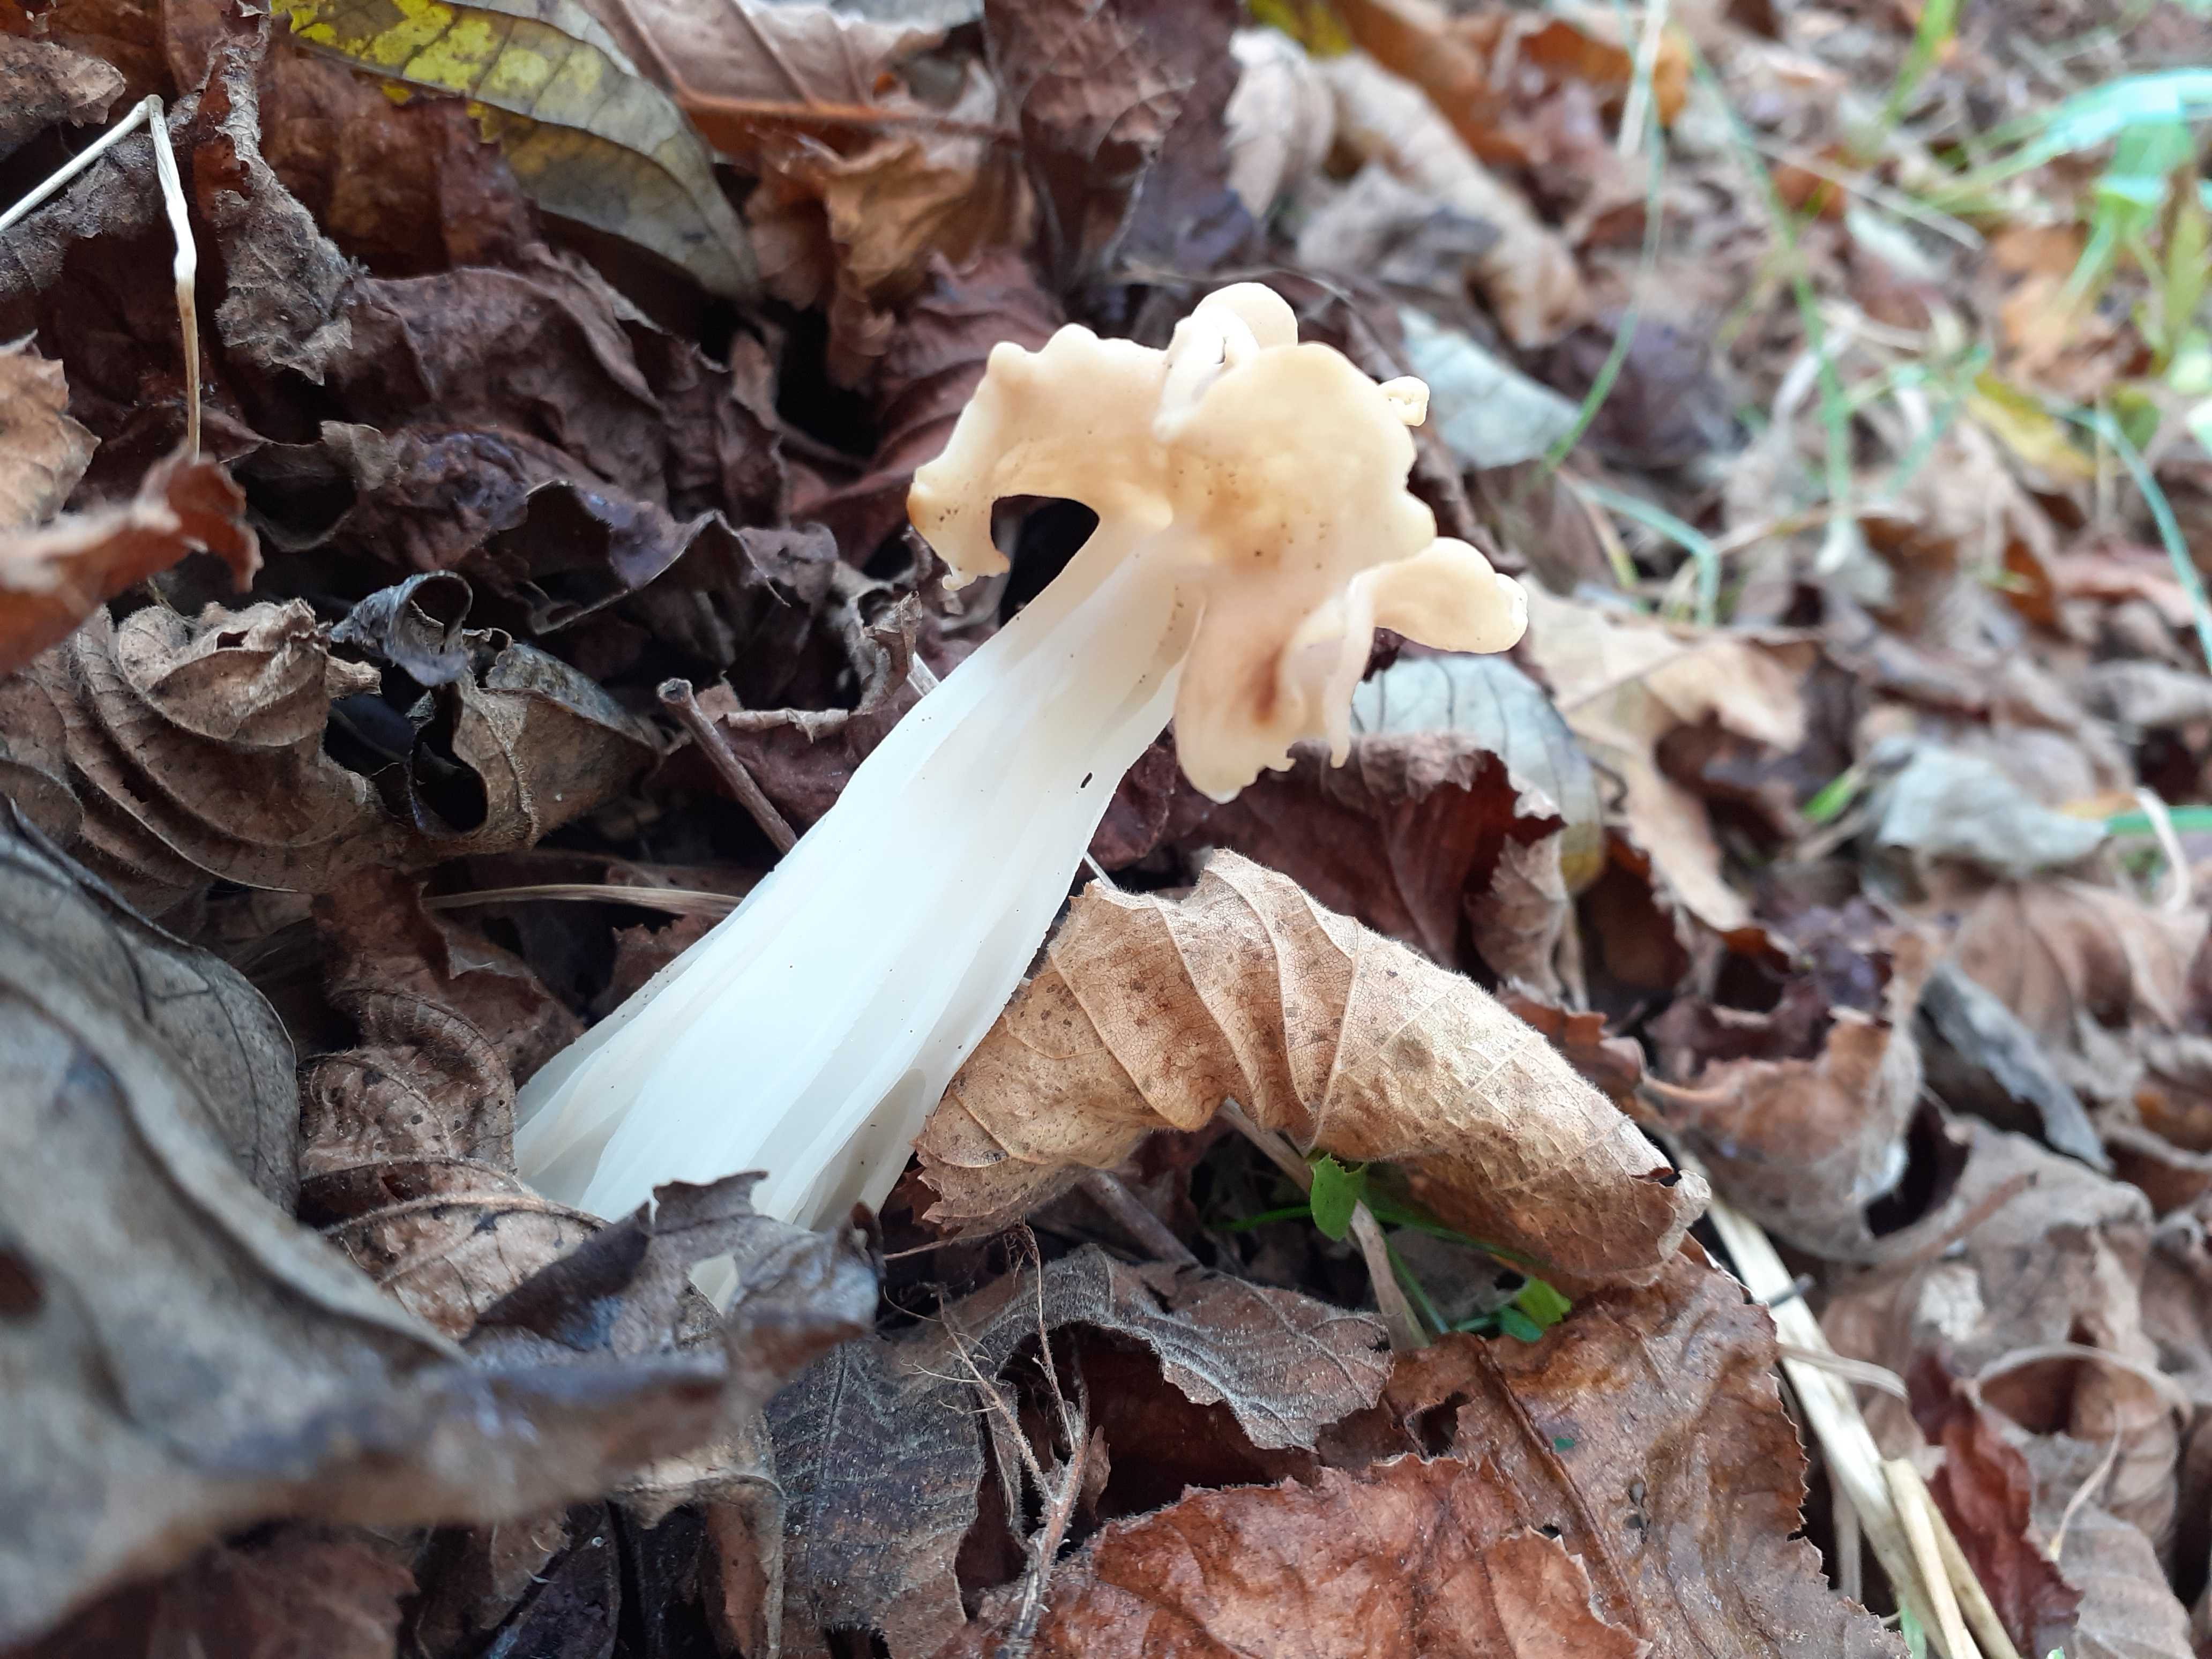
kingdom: Fungi
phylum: Ascomycota
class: Pezizomycetes
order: Pezizales
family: Helvellaceae
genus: Helvella
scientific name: Helvella crispa
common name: kruset foldhat
